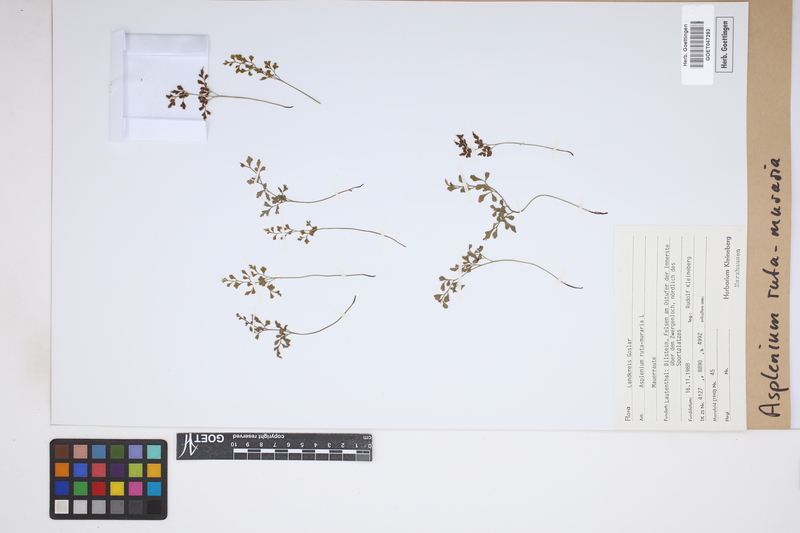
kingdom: Plantae
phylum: Tracheophyta
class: Polypodiopsida
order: Polypodiales
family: Aspleniaceae
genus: Asplenium
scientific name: Asplenium ruta-muraria
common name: Wall-rue
